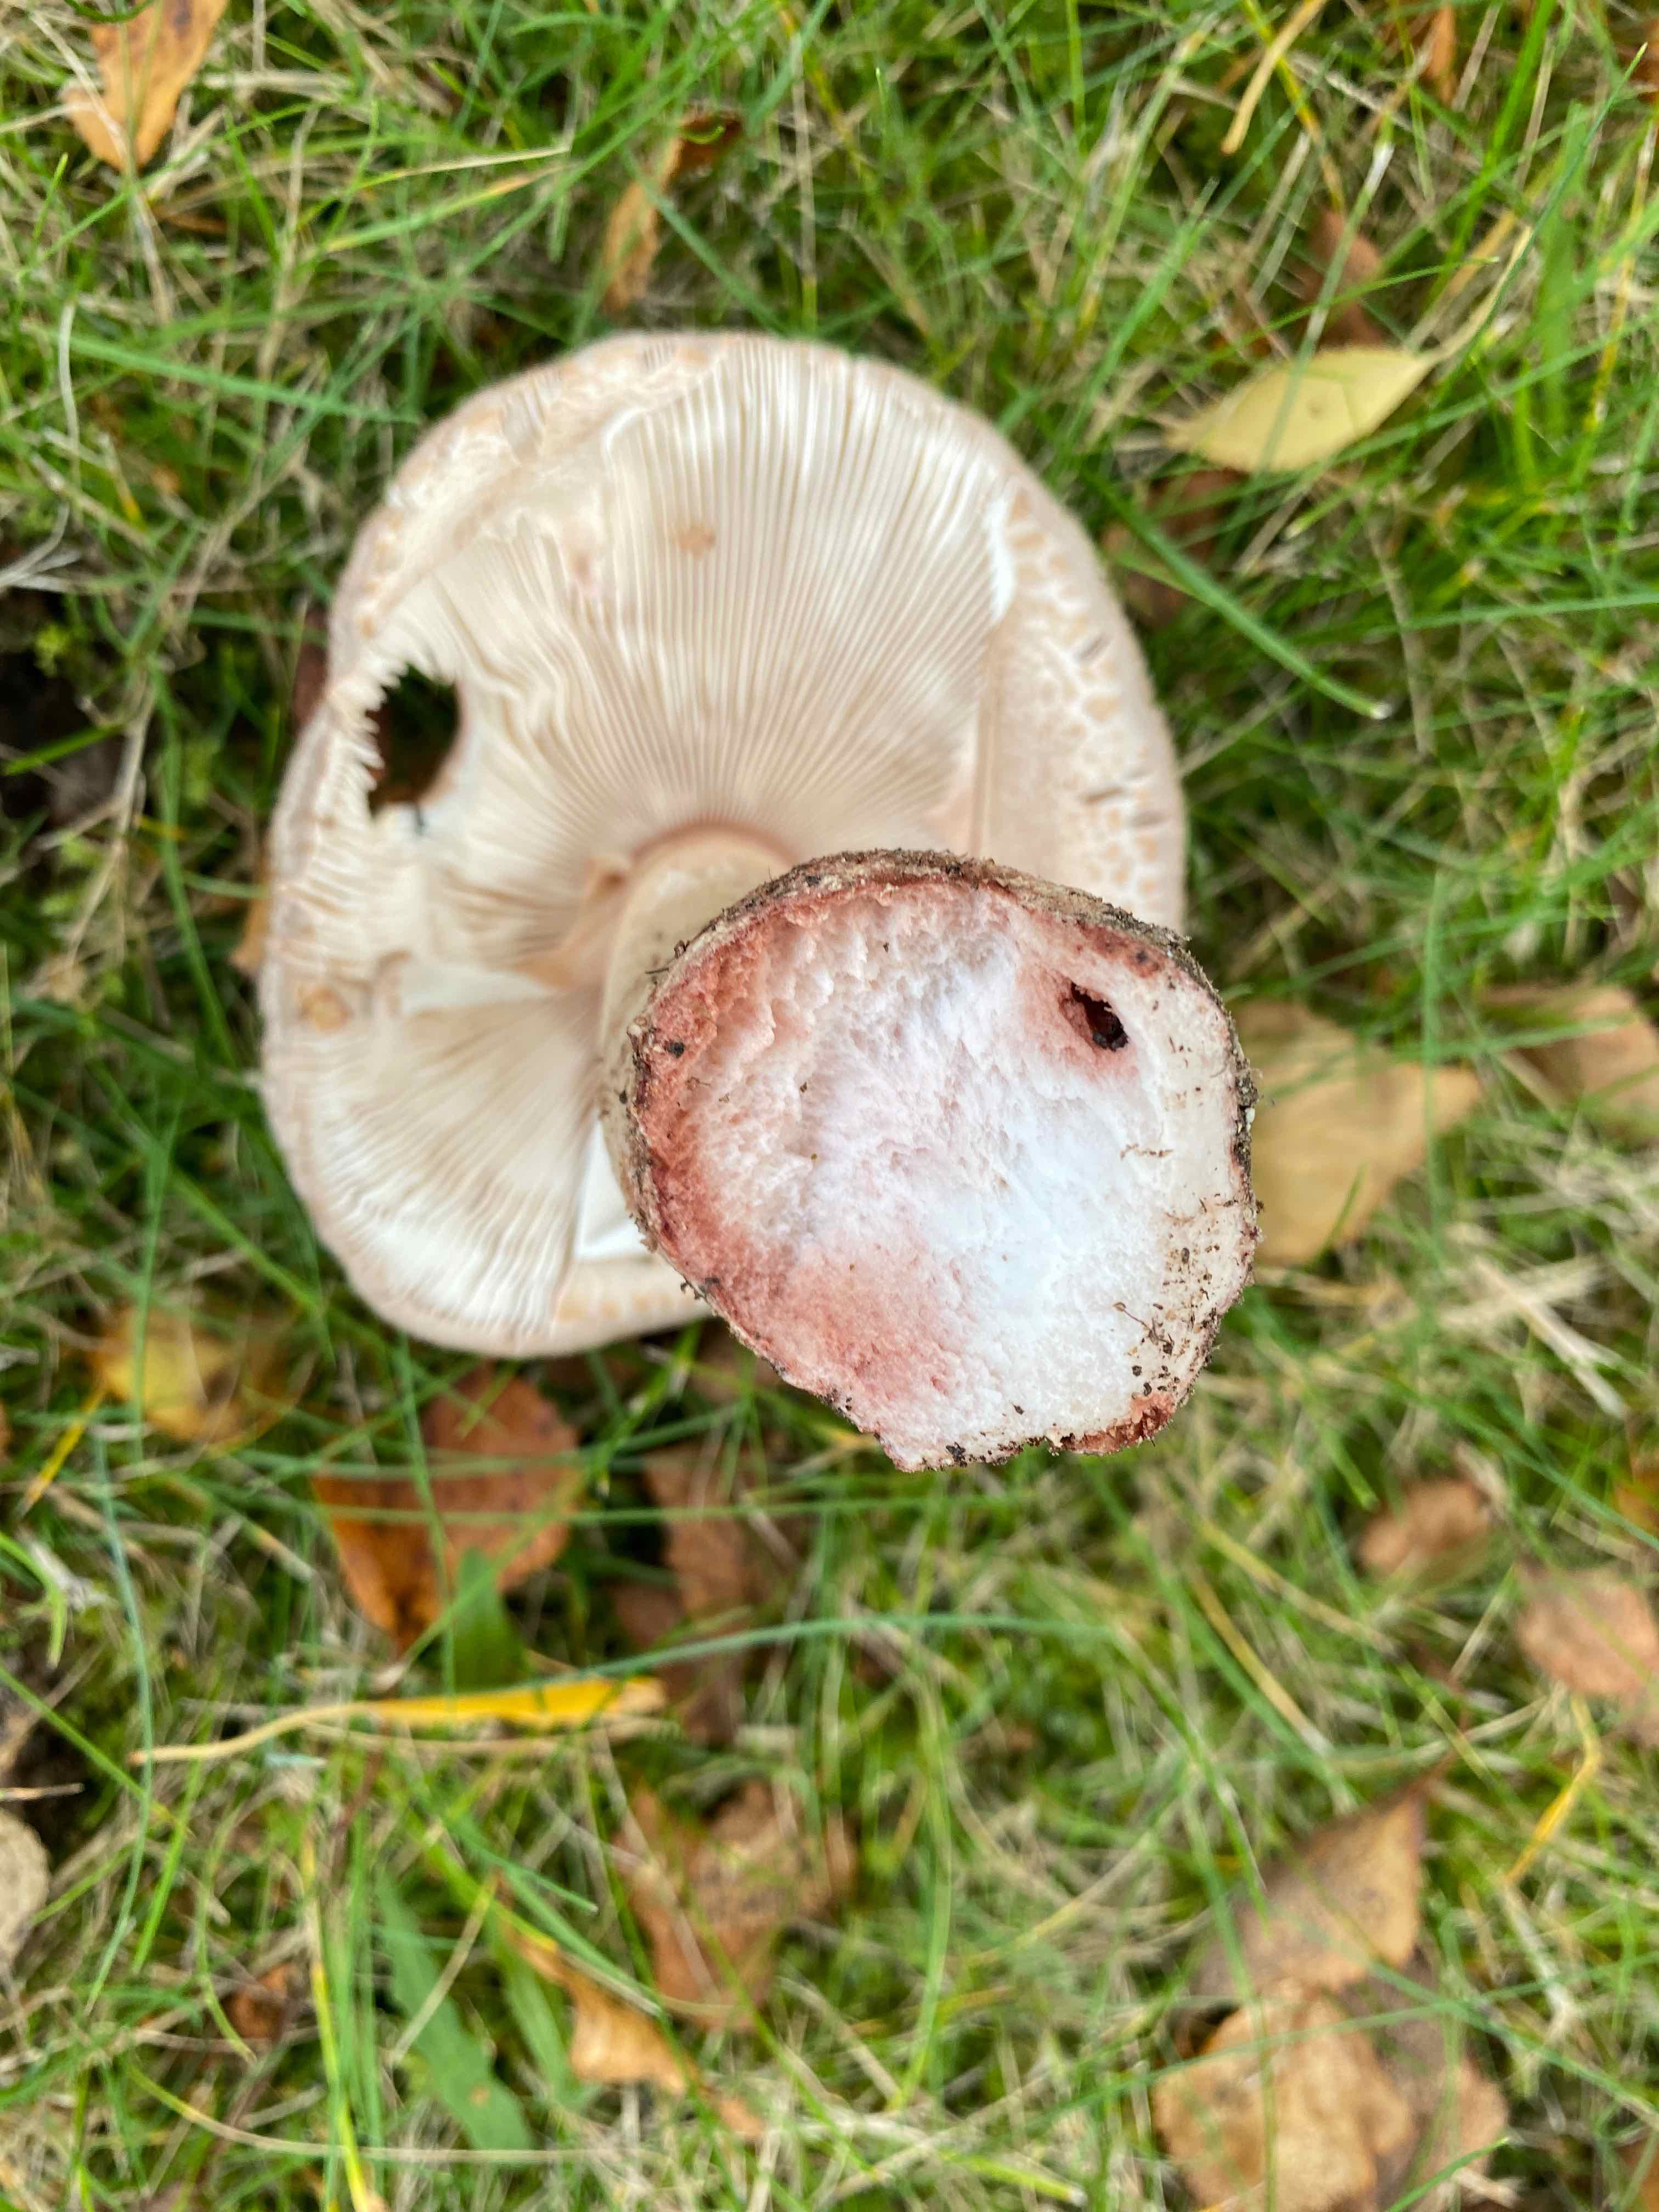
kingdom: Fungi
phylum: Basidiomycota
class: Agaricomycetes
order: Agaricales
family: Amanitaceae
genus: Amanita
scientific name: Amanita rubescens
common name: rødmende fluesvamp
